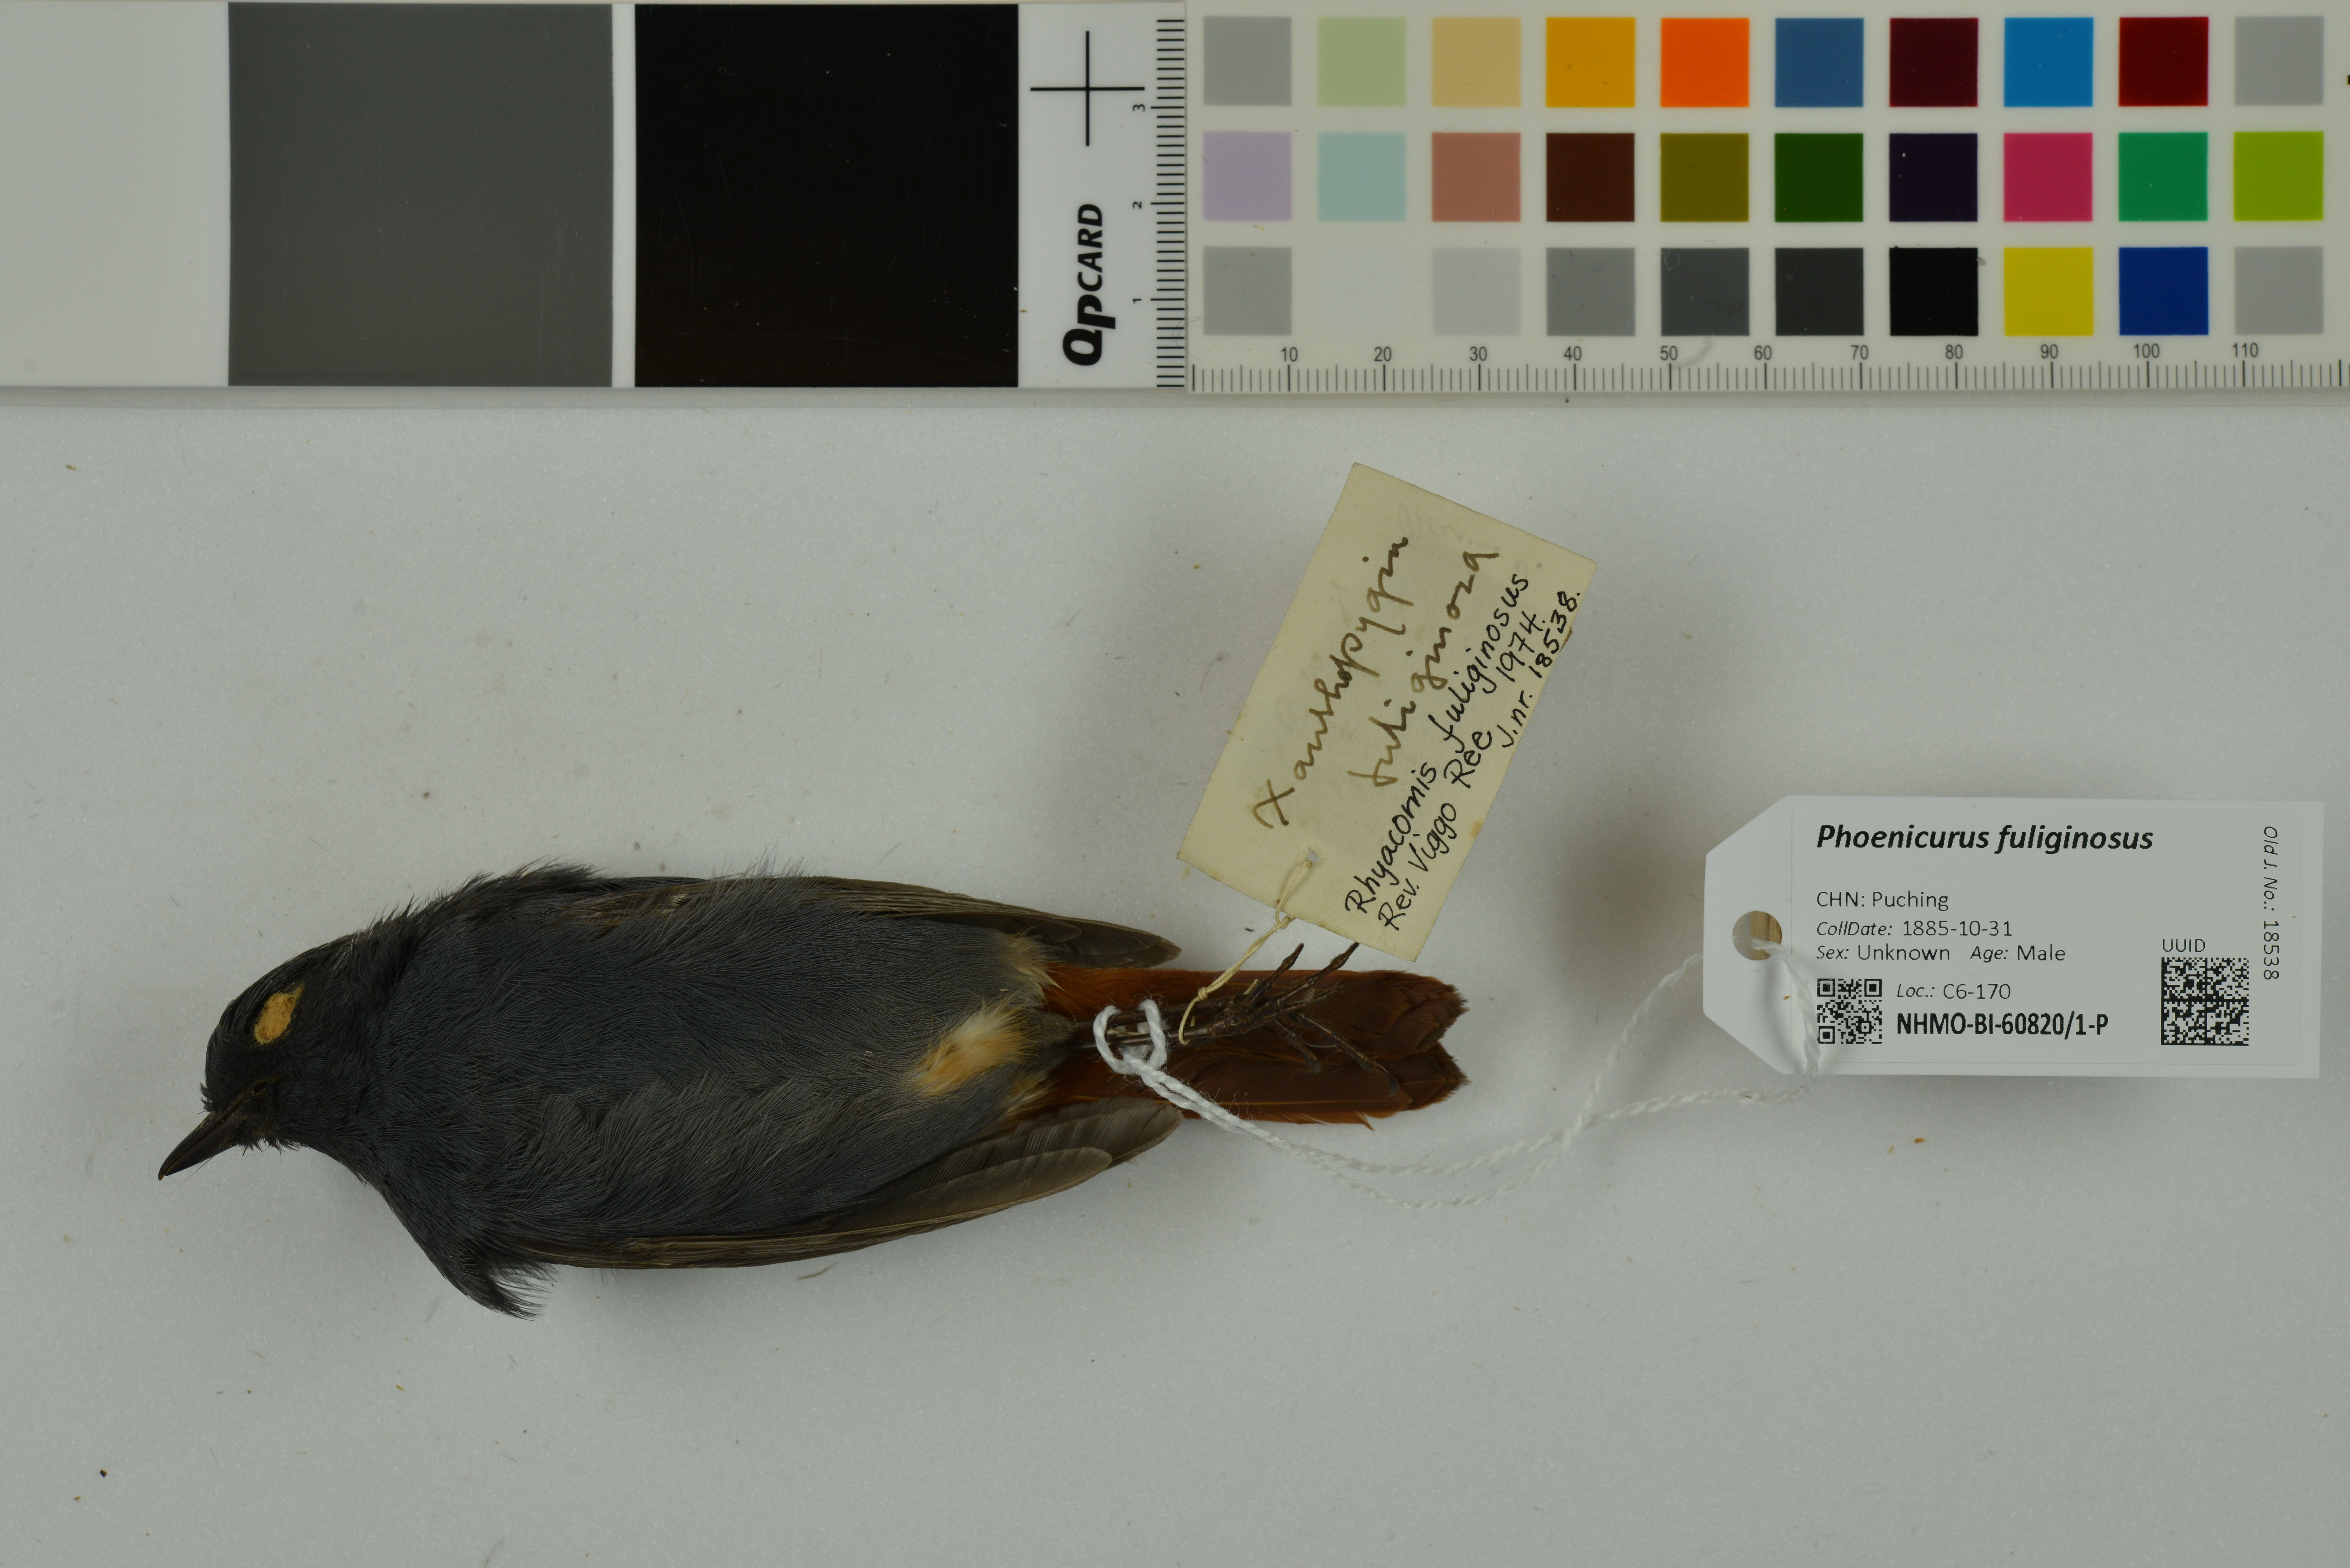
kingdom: Animalia
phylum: Chordata
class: Aves
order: Passeriformes
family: Muscicapidae
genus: Phoenicurus
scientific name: Phoenicurus fuliginosus
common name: Plumbeous water redstart
